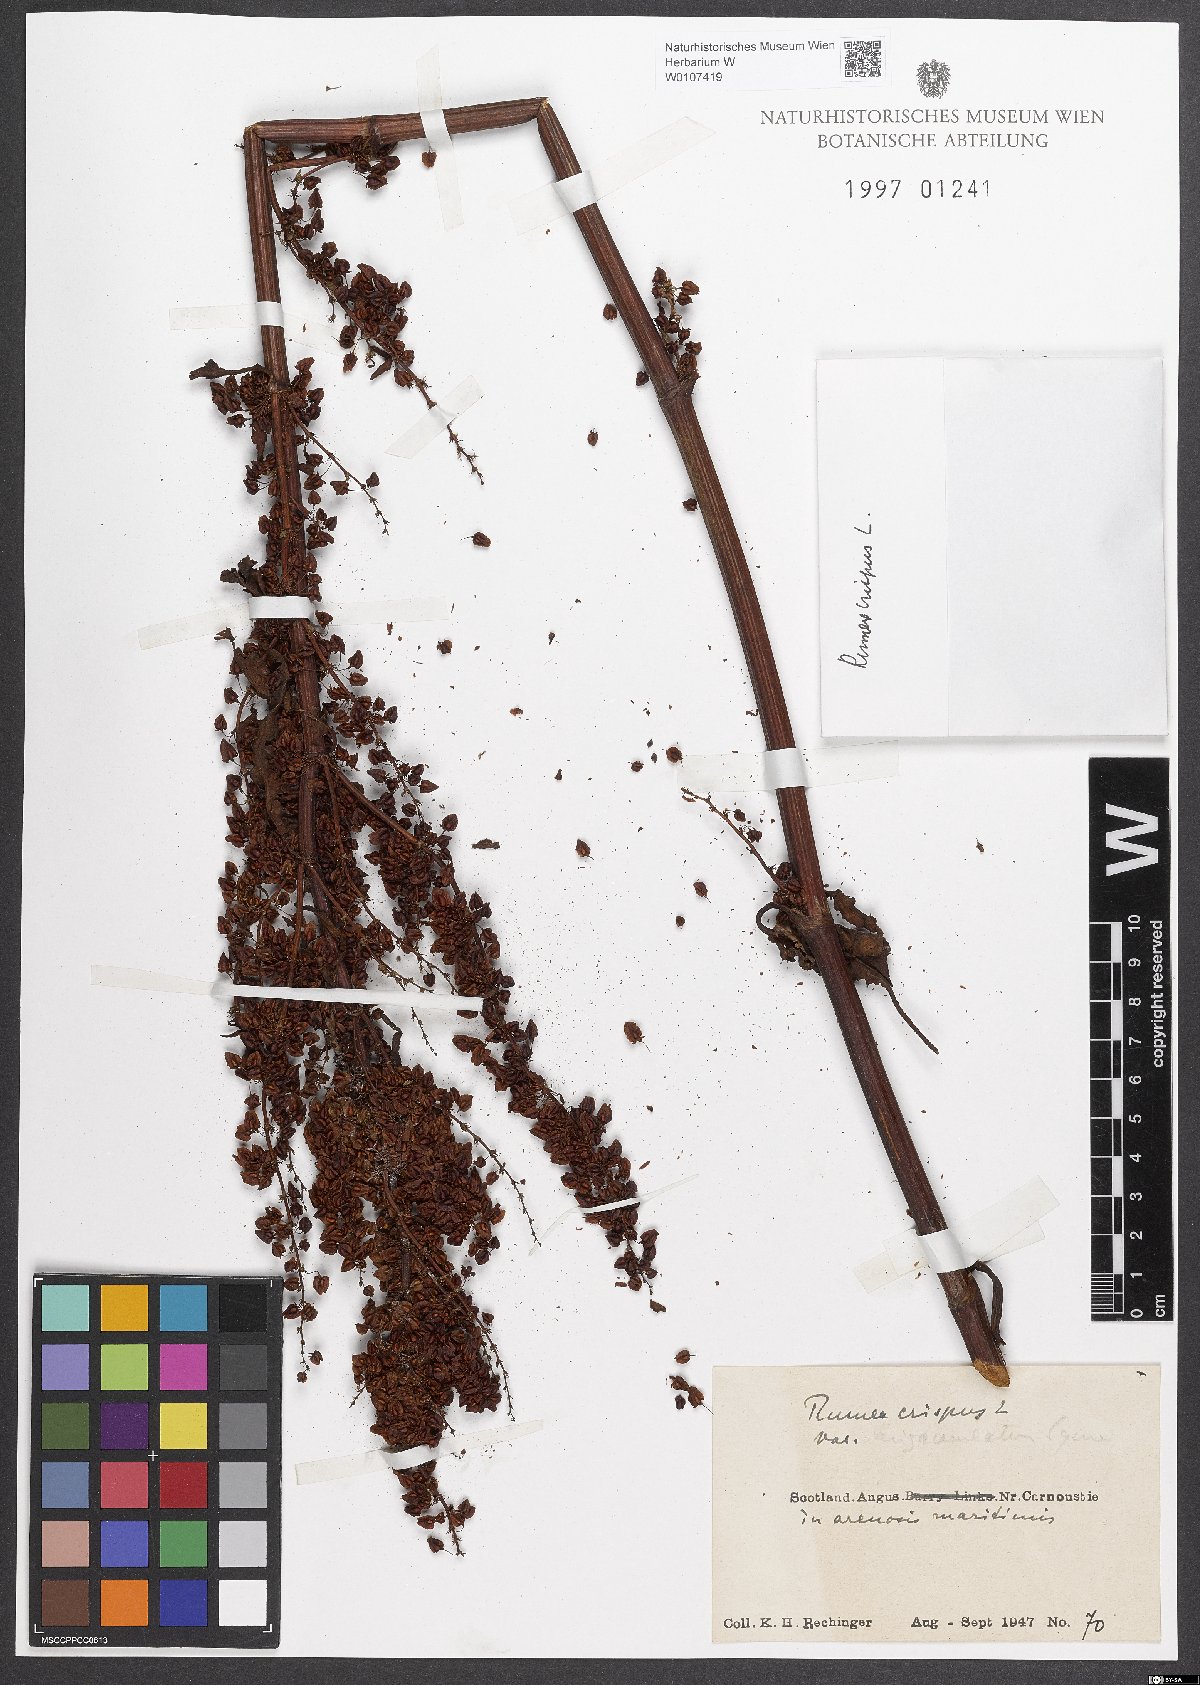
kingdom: Plantae
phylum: Tracheophyta
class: Magnoliopsida
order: Caryophyllales
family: Polygonaceae
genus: Rumex
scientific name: Rumex crispus
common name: Curled dock
